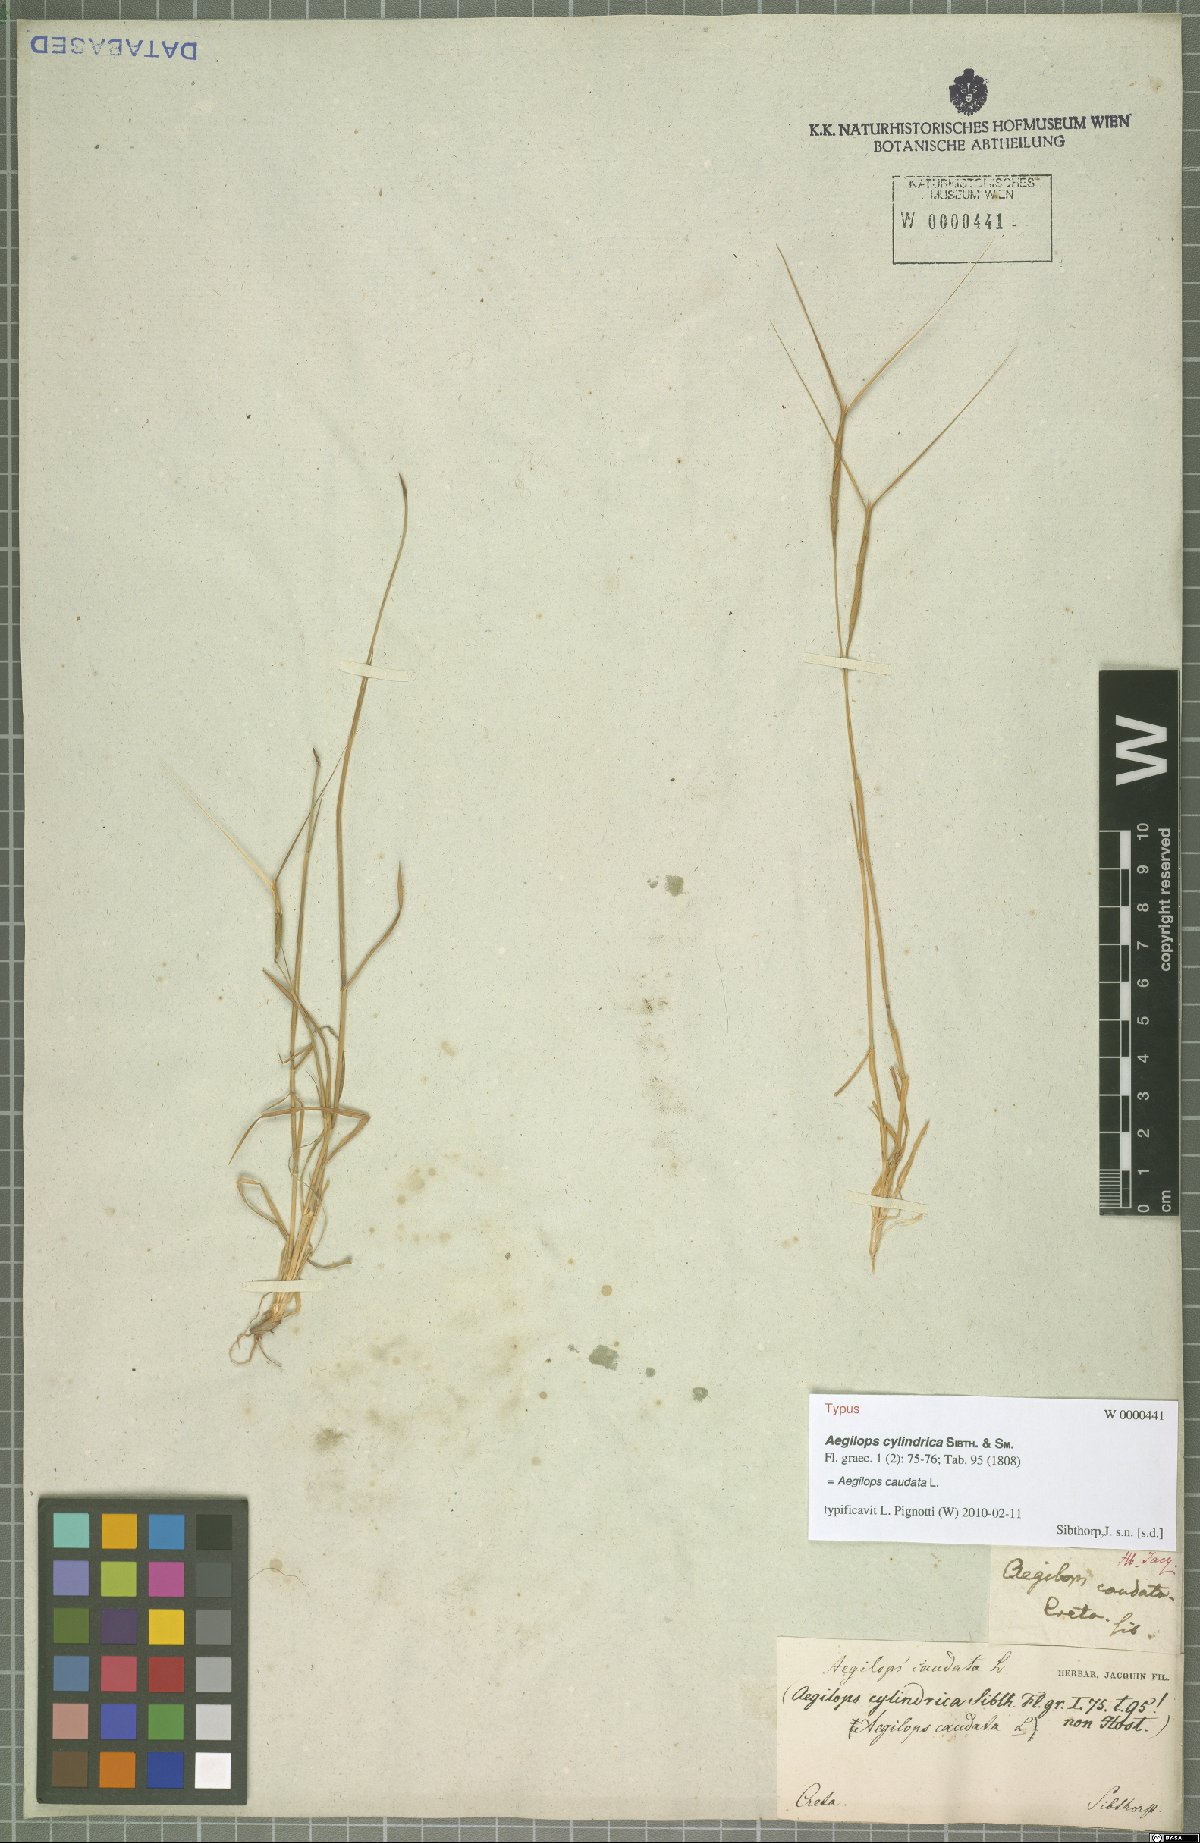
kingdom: Plantae
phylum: Tracheophyta
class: Liliopsida
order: Poales
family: Poaceae
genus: Aegilops
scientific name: Aegilops caudata
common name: Cretan hard-grass
